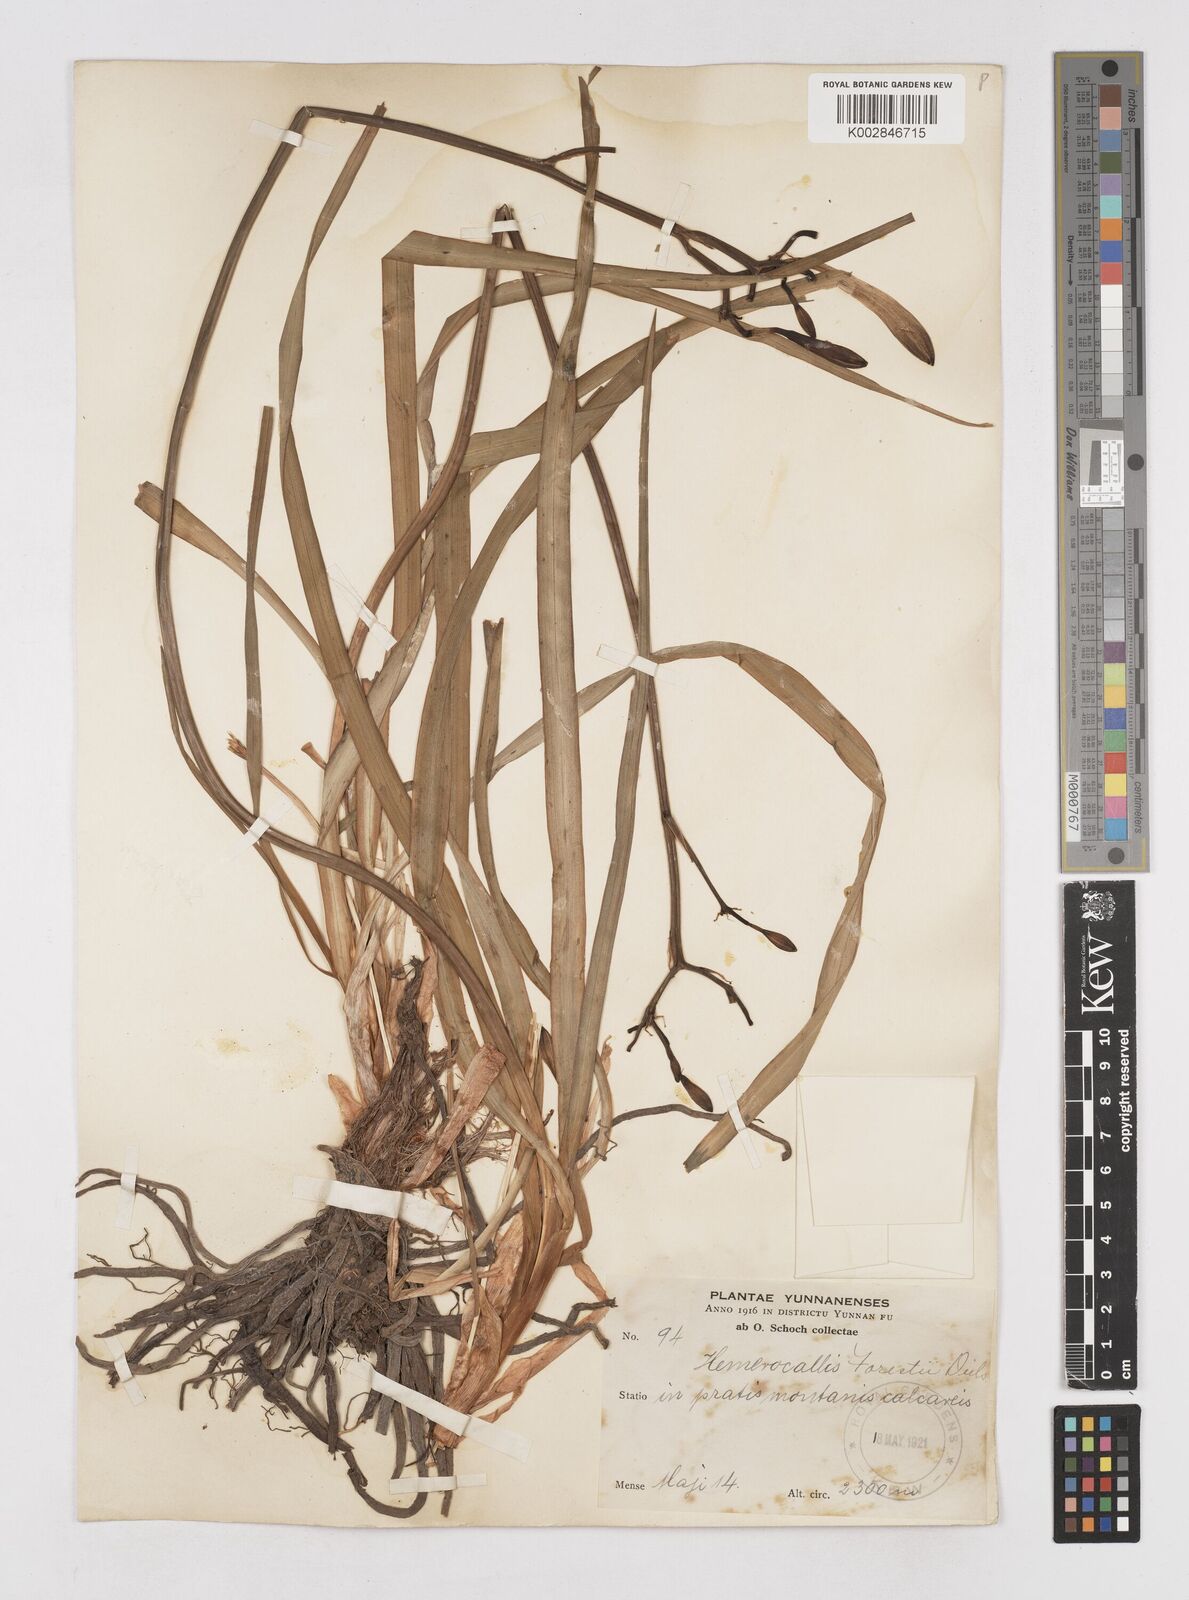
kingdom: Plantae
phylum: Tracheophyta
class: Liliopsida
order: Asparagales
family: Asphodelaceae
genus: Hemerocallis
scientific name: Hemerocallis
